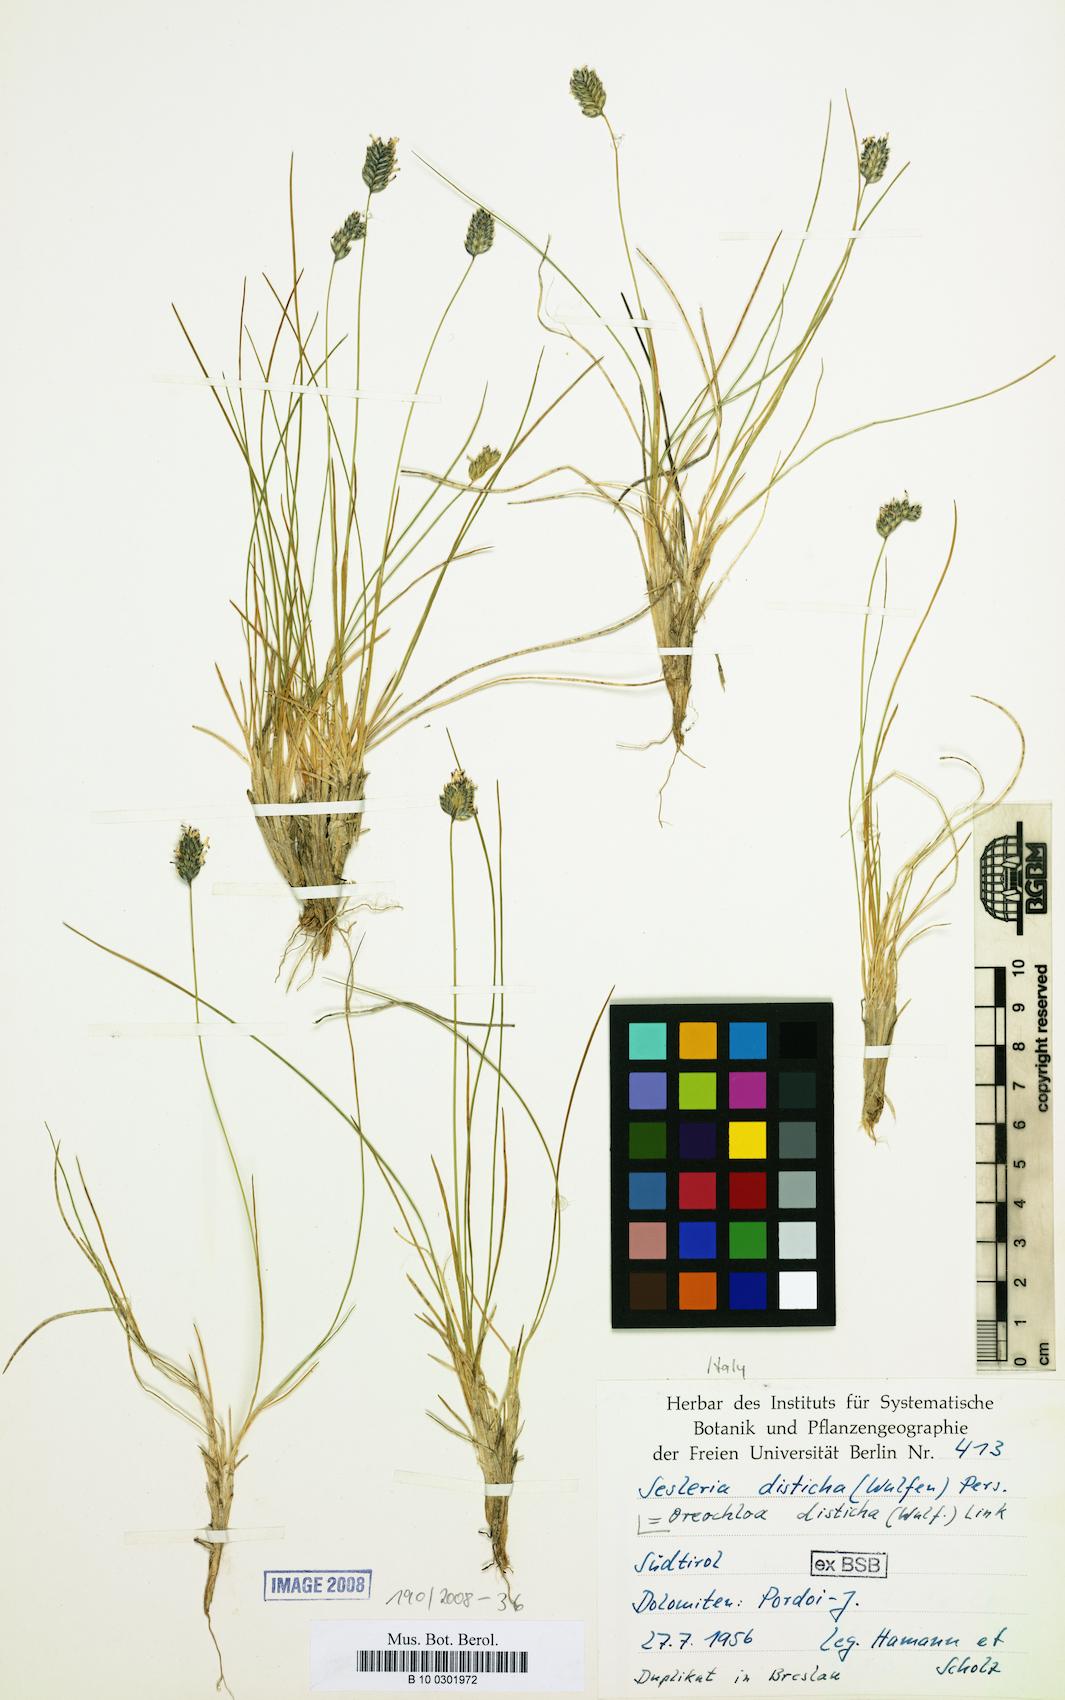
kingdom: Plantae
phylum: Tracheophyta
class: Liliopsida
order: Poales
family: Poaceae
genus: Oreochloa
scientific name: Oreochloa disticha
